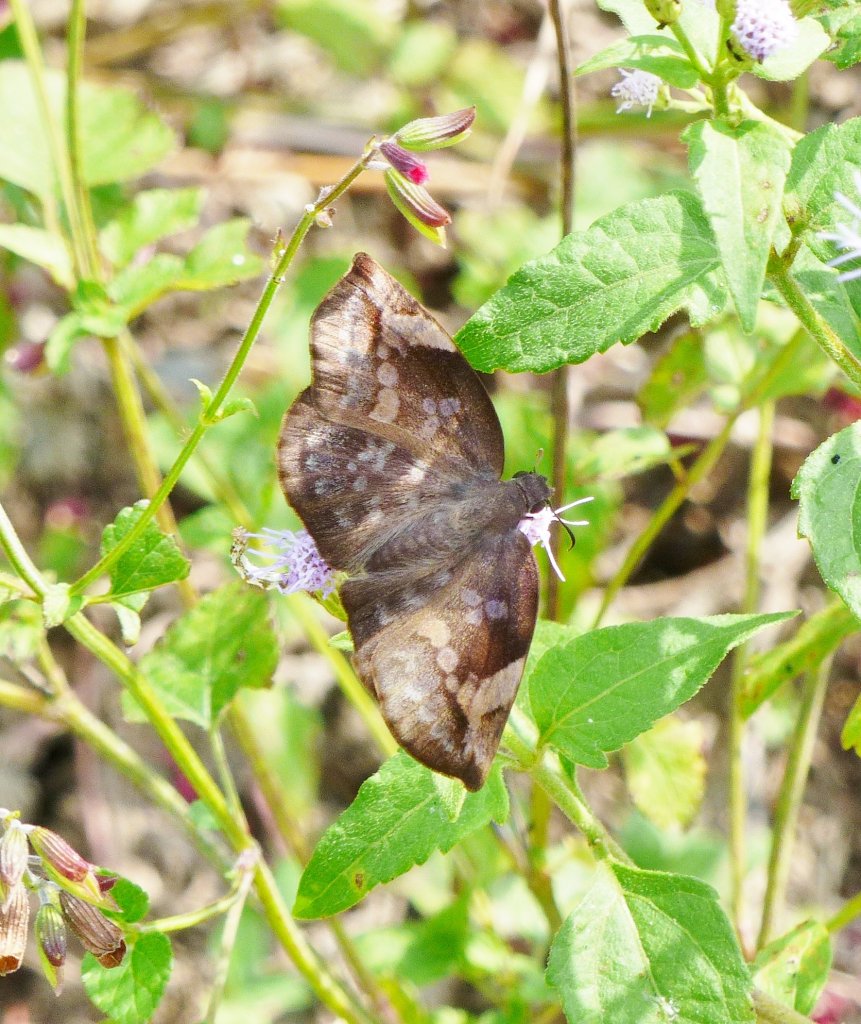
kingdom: Animalia
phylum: Arthropoda
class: Insecta
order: Lepidoptera
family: Hesperiidae
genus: Achlyodes
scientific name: Achlyodes thraso
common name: Sickle-winged Skipper
